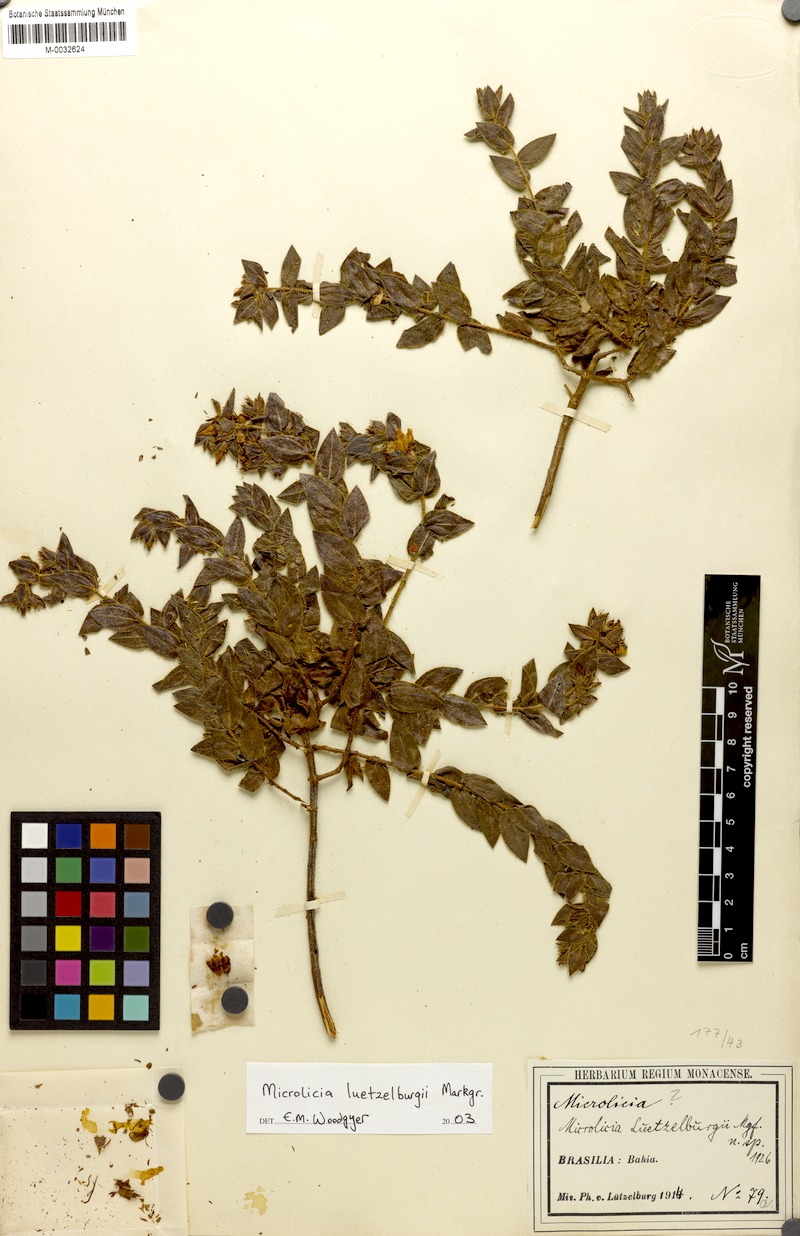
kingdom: Plantae
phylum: Tracheophyta
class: Magnoliopsida
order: Myrtales
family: Melastomataceae
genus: Microlicia
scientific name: Microlicia luetzelburgii
